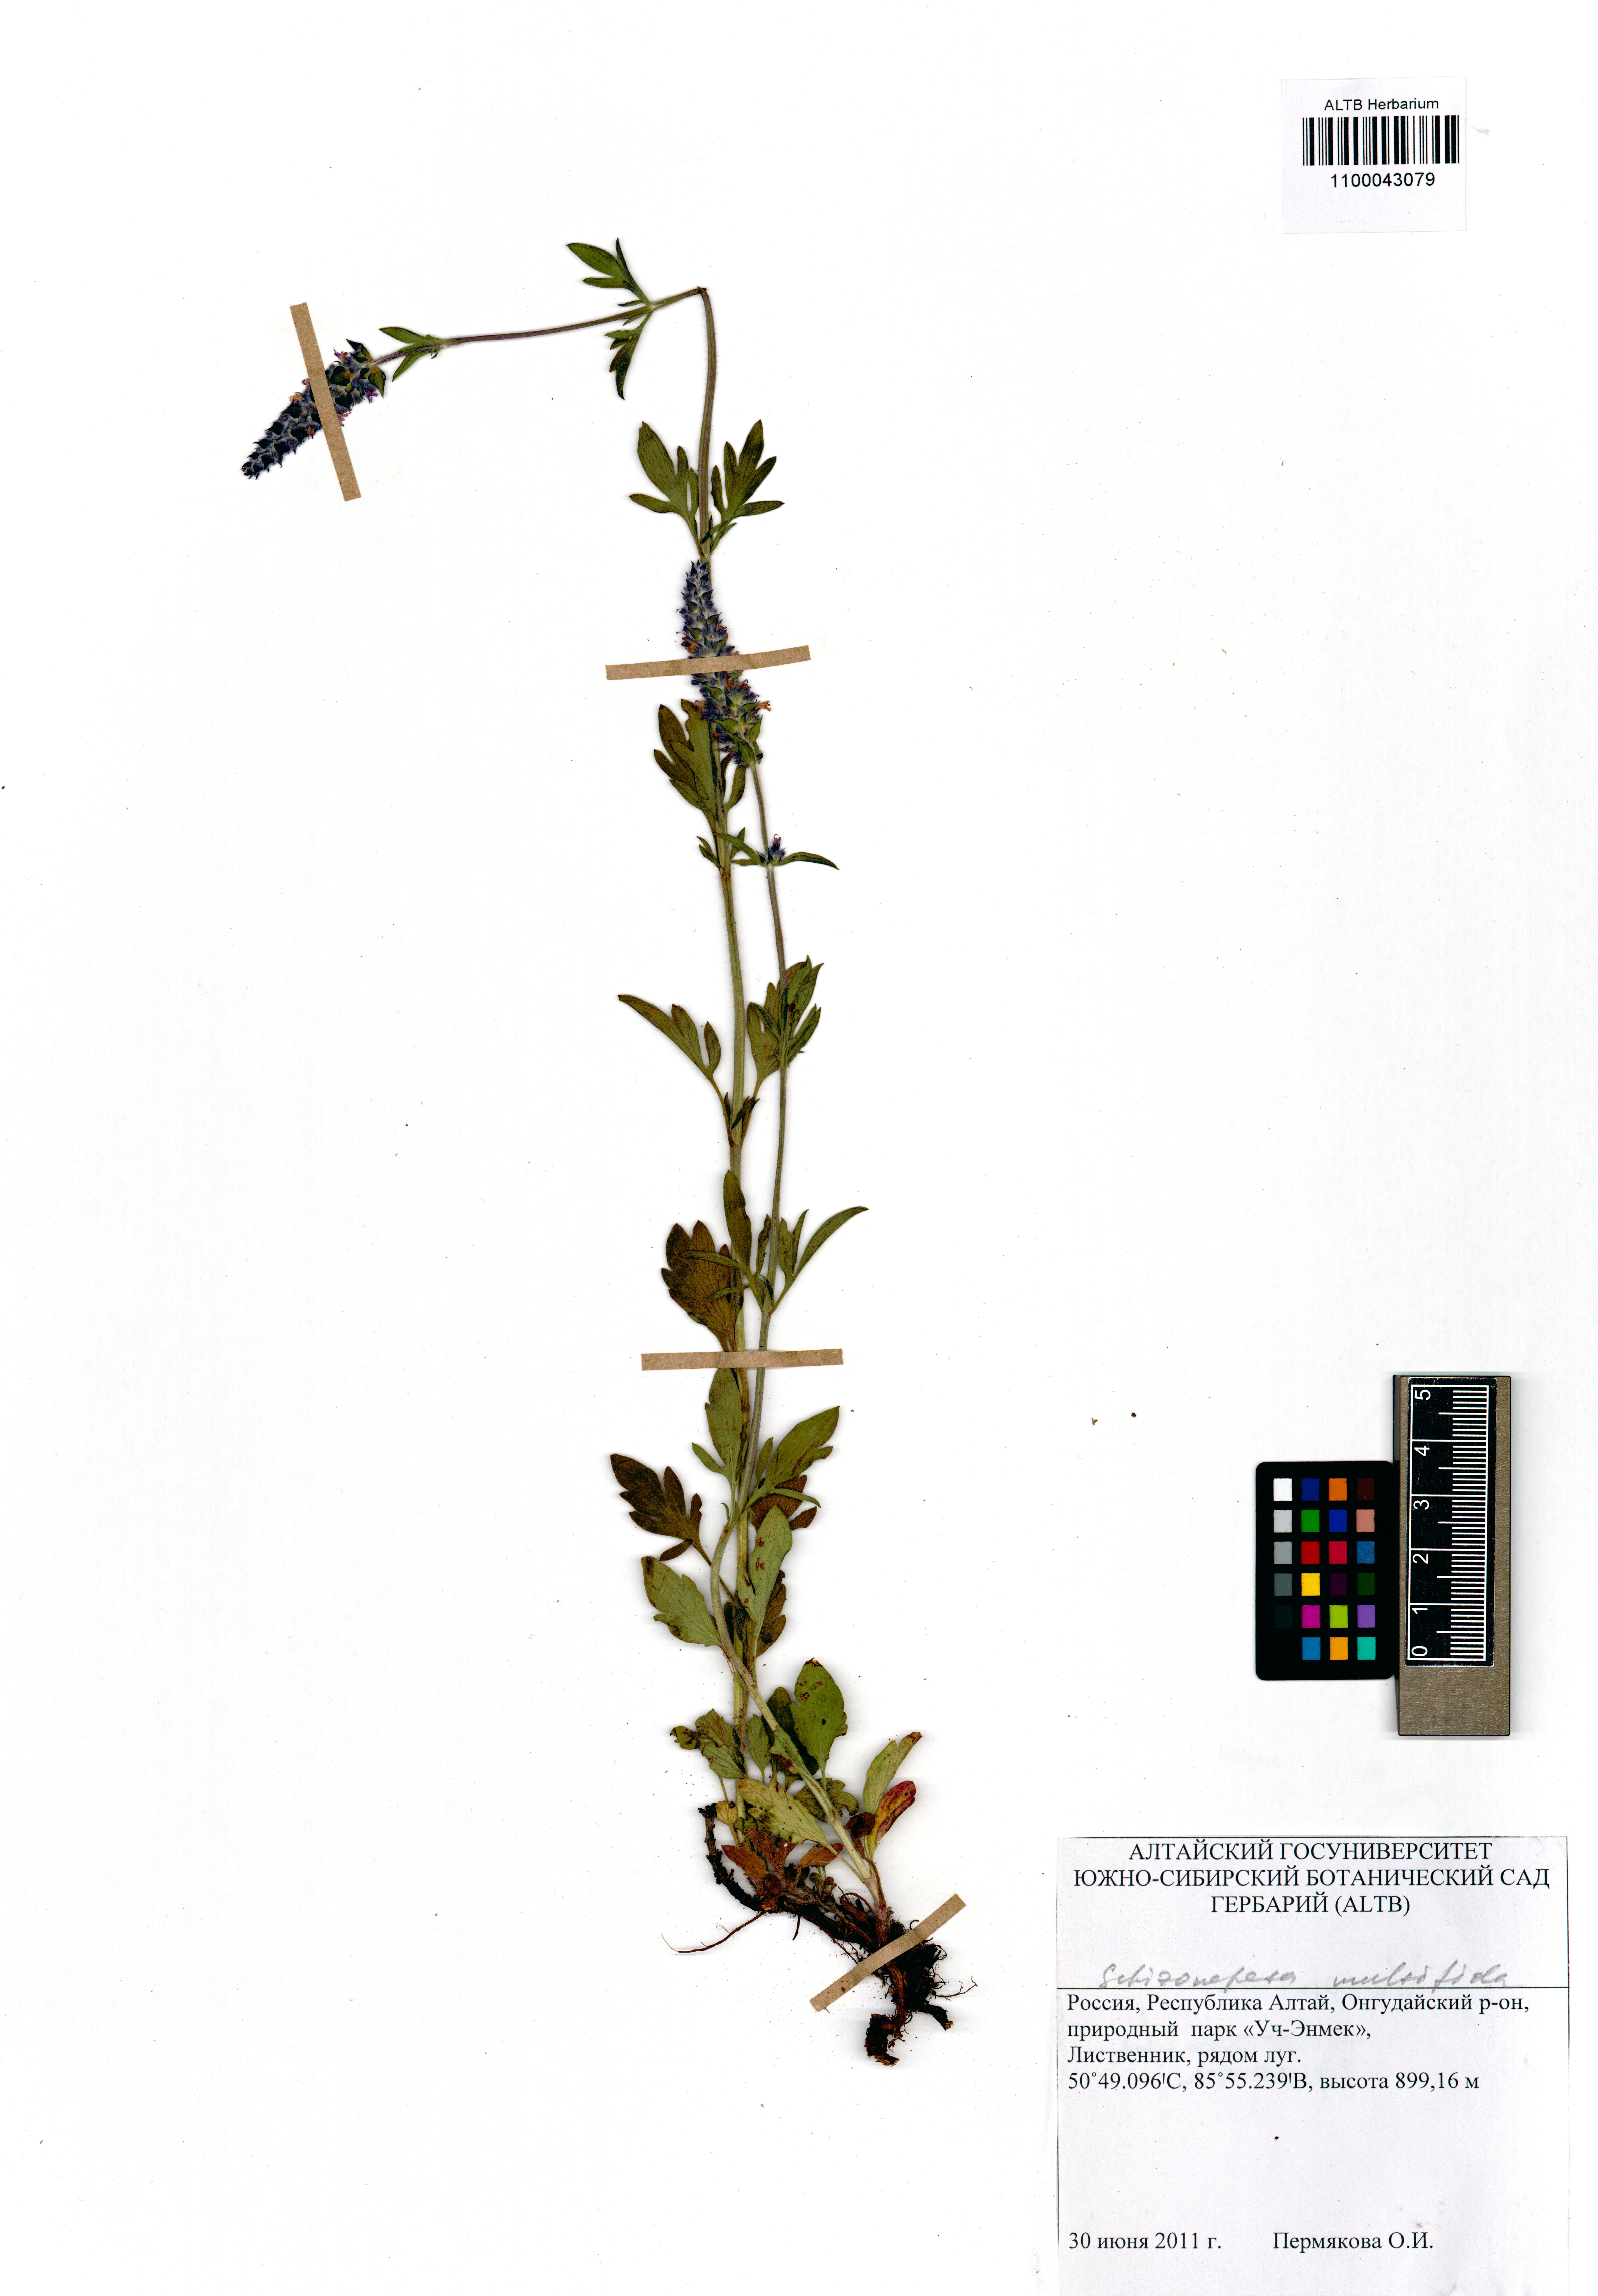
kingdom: Plantae
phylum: Tracheophyta
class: Magnoliopsida
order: Lamiales
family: Lamiaceae
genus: Nepeta
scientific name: Nepeta multifida
